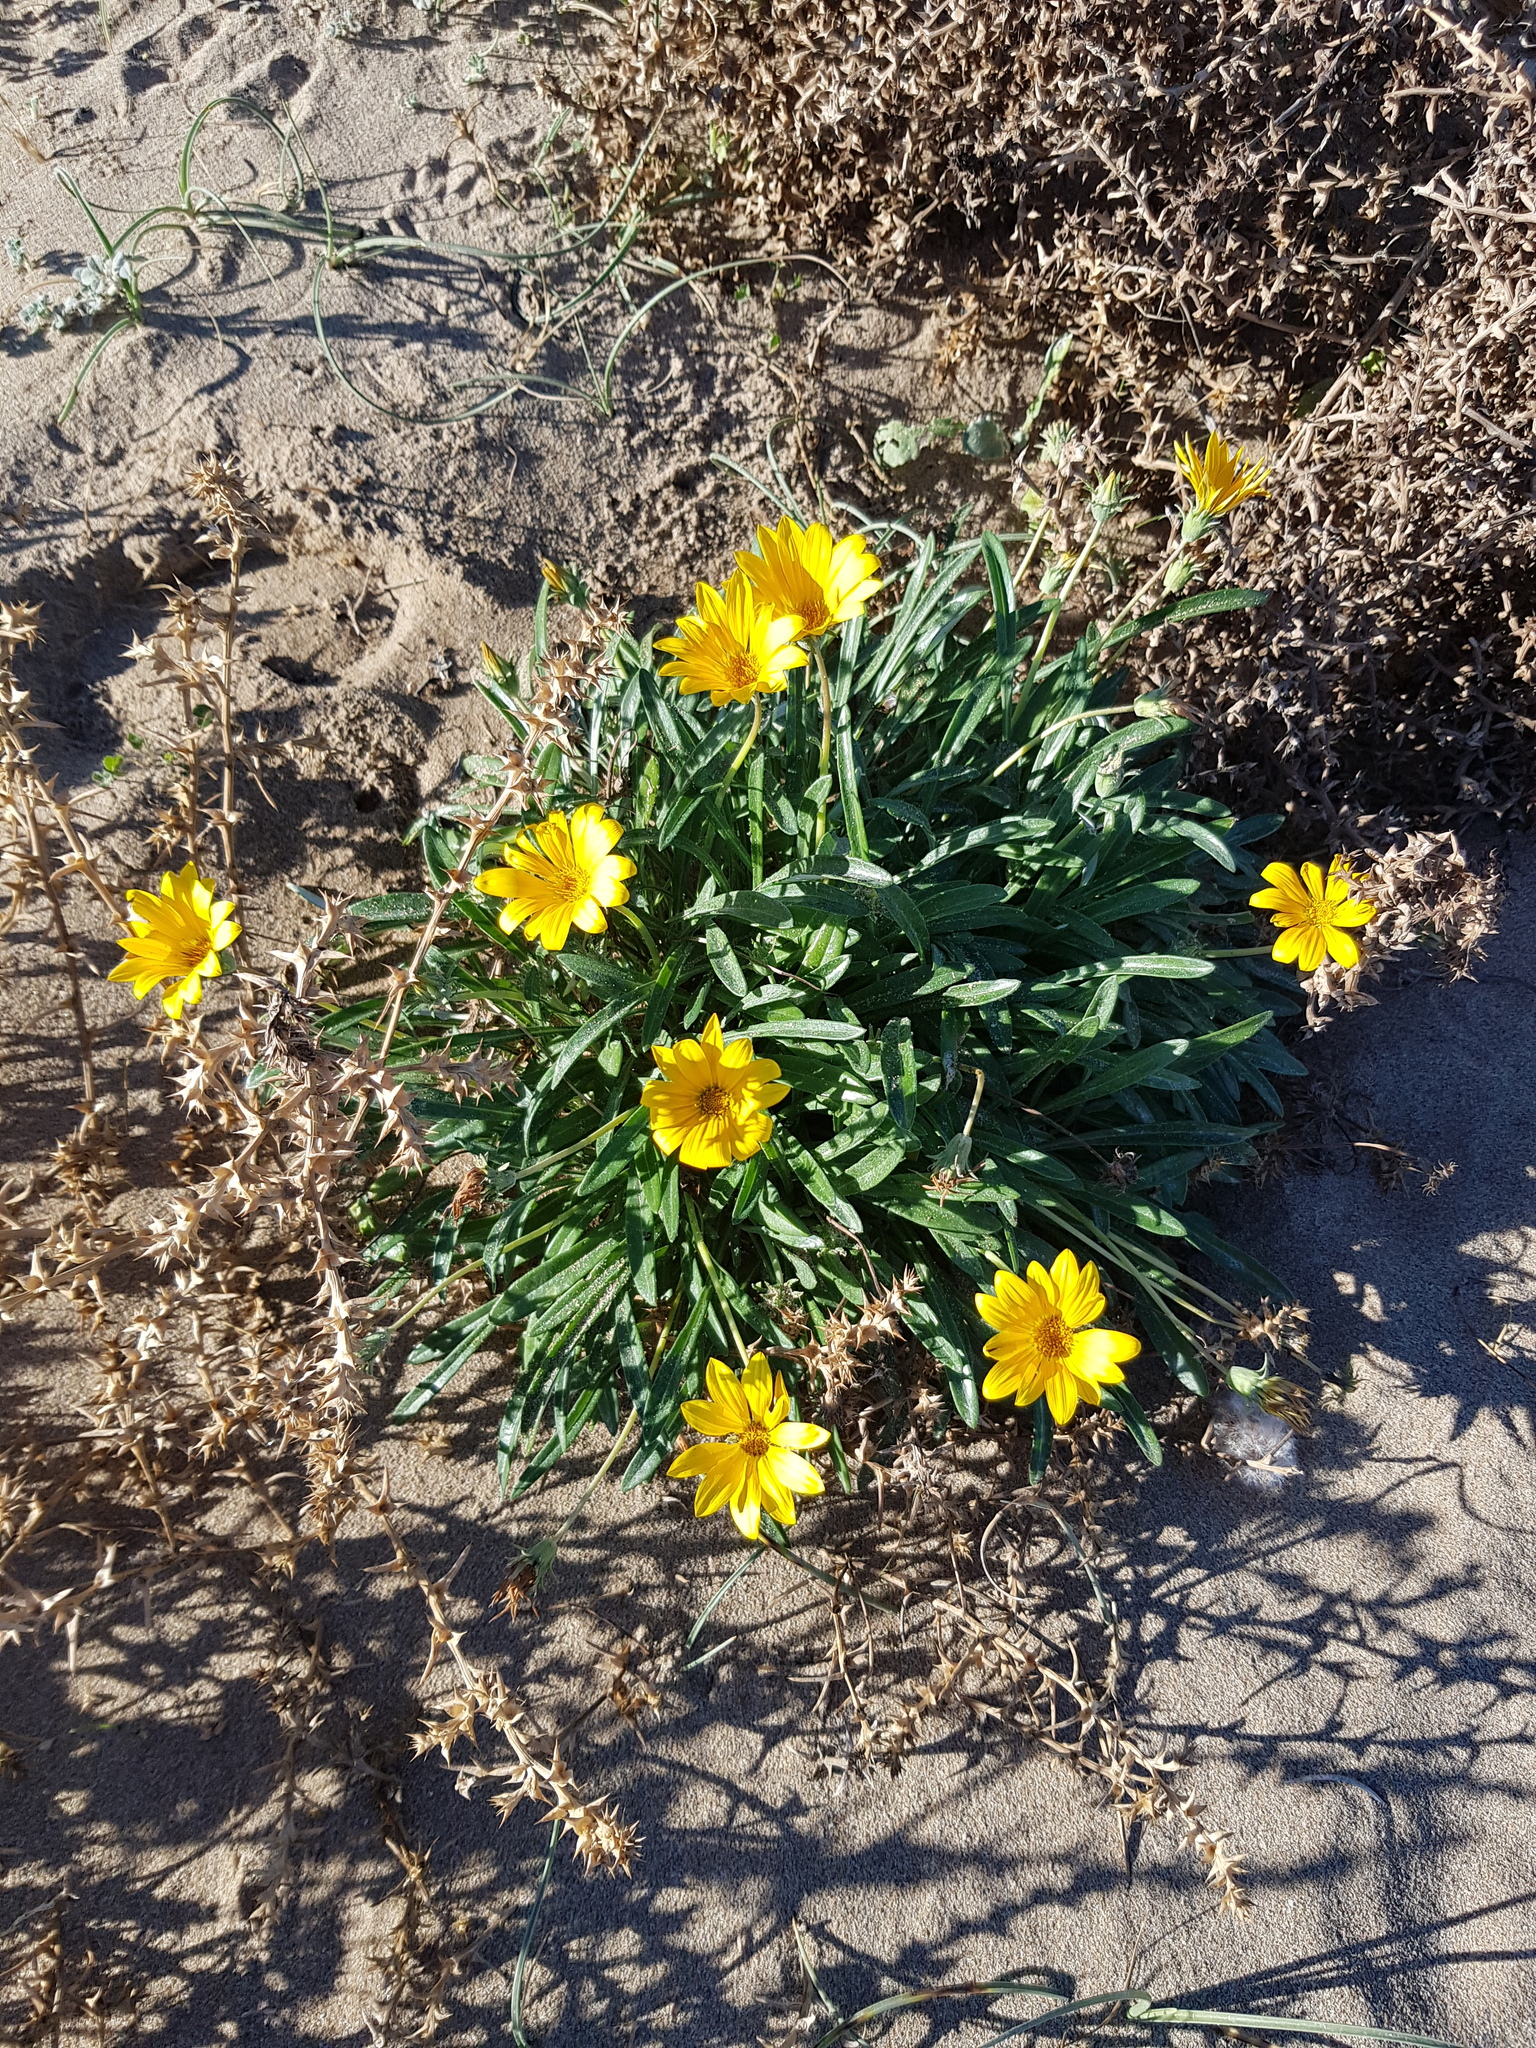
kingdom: Plantae
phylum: Tracheophyta
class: Magnoliopsida
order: Asterales
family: Asteraceae
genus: Gazania
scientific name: Gazania rigens
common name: Treasureflower
